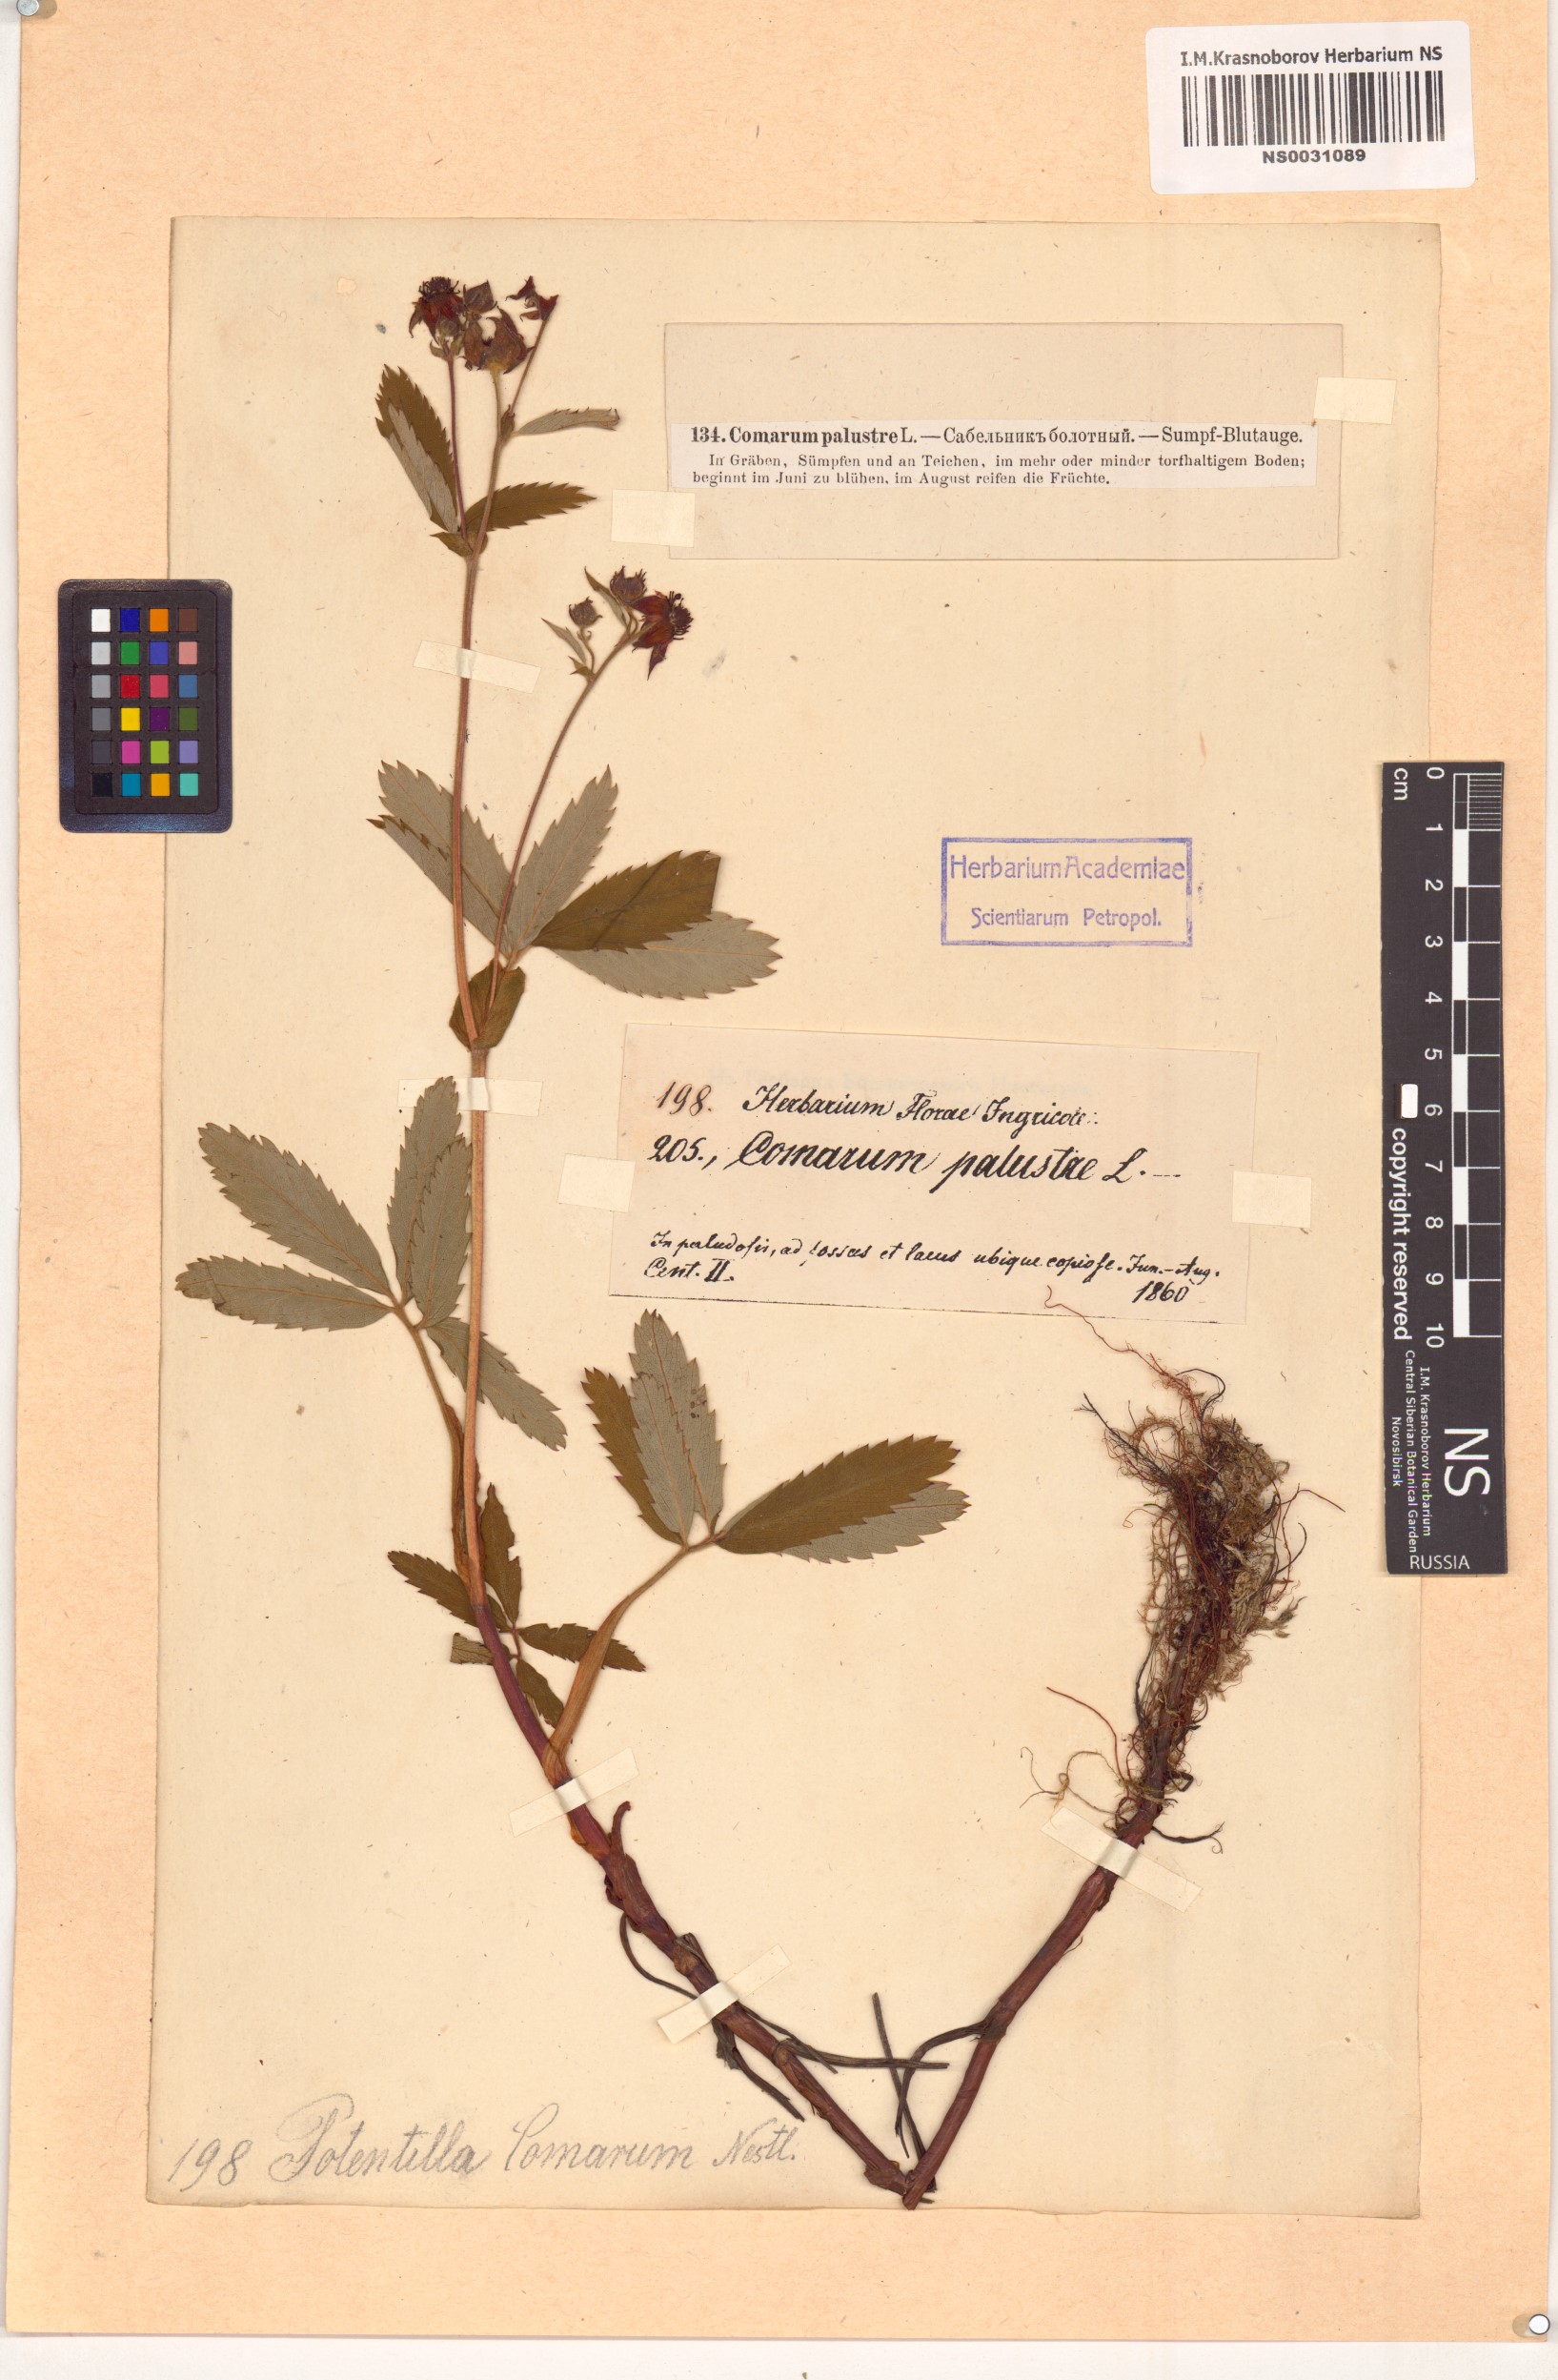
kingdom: Plantae
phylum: Tracheophyta
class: Magnoliopsida
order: Rosales
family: Rosaceae
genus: Comarum
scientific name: Comarum palustre
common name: Marsh cinquefoil
